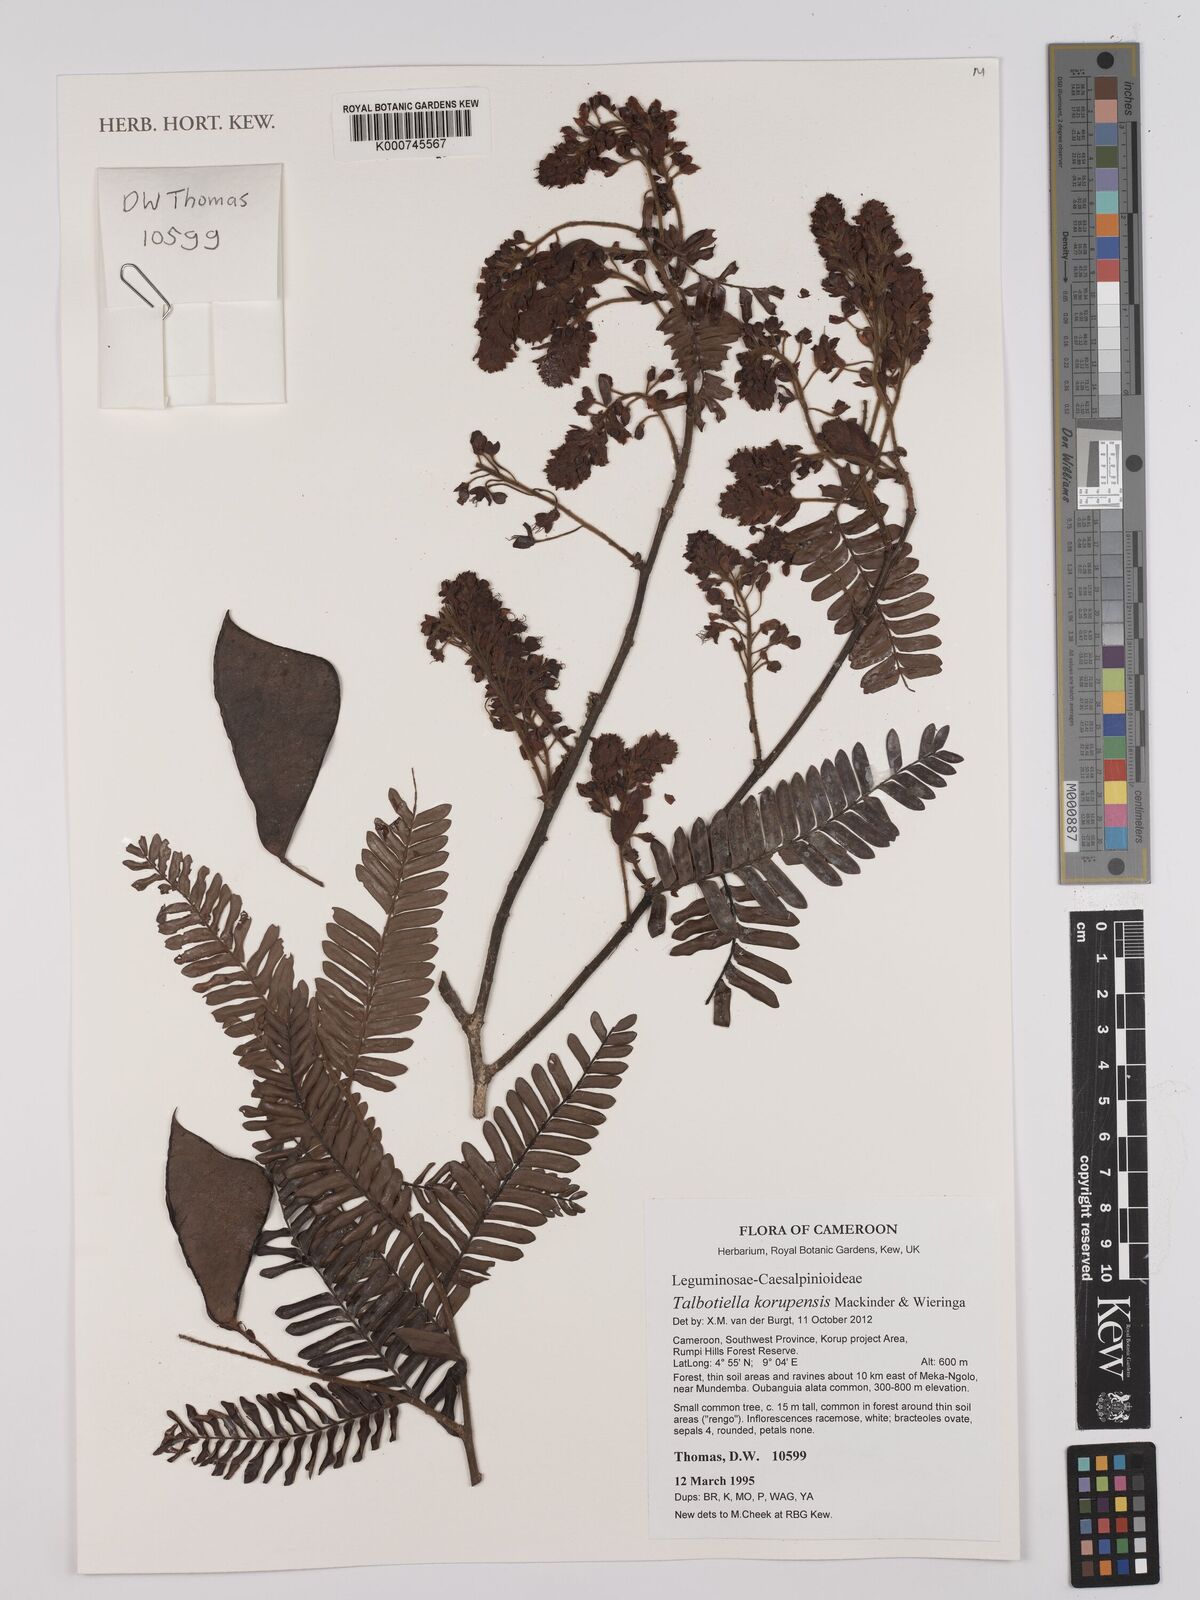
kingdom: Plantae
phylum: Tracheophyta
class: Magnoliopsida
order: Fabales
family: Fabaceae
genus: Talbotiella
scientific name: Talbotiella korupensis
